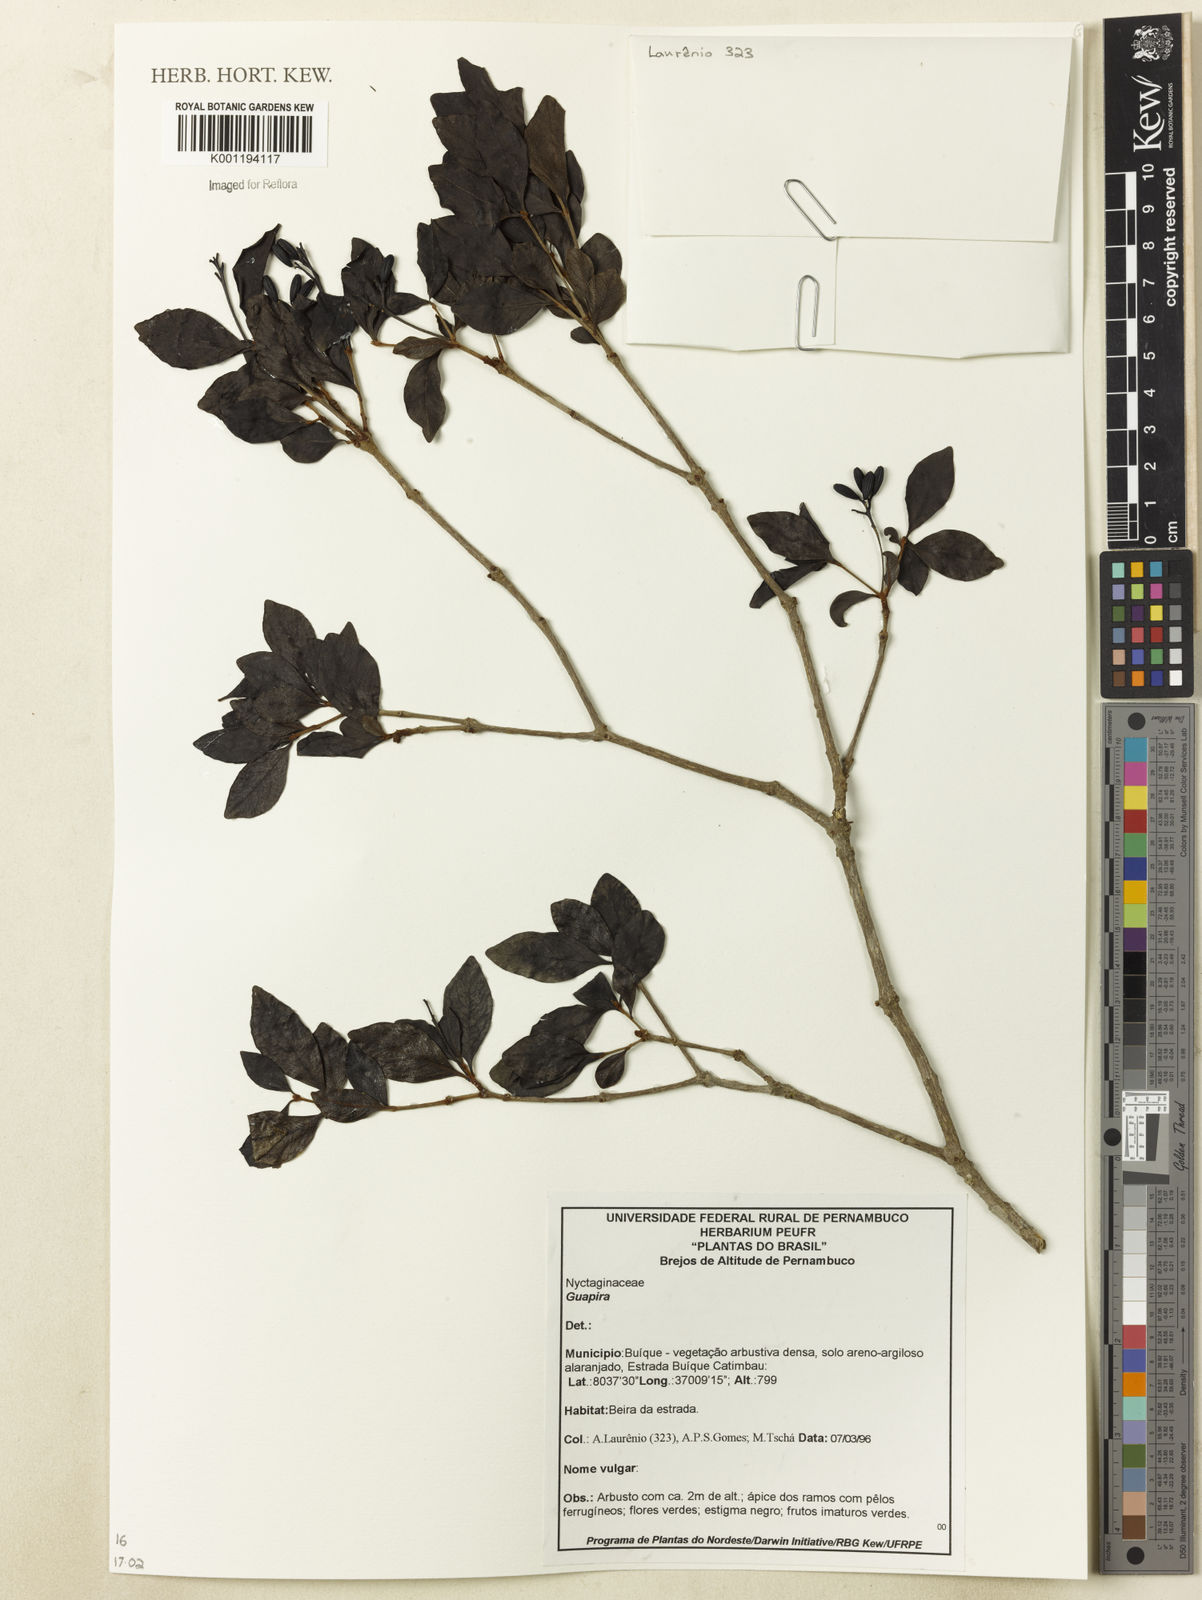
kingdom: Plantae
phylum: Tracheophyta
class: Magnoliopsida
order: Caryophyllales
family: Nyctaginaceae
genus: Guapira
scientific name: Guapira
